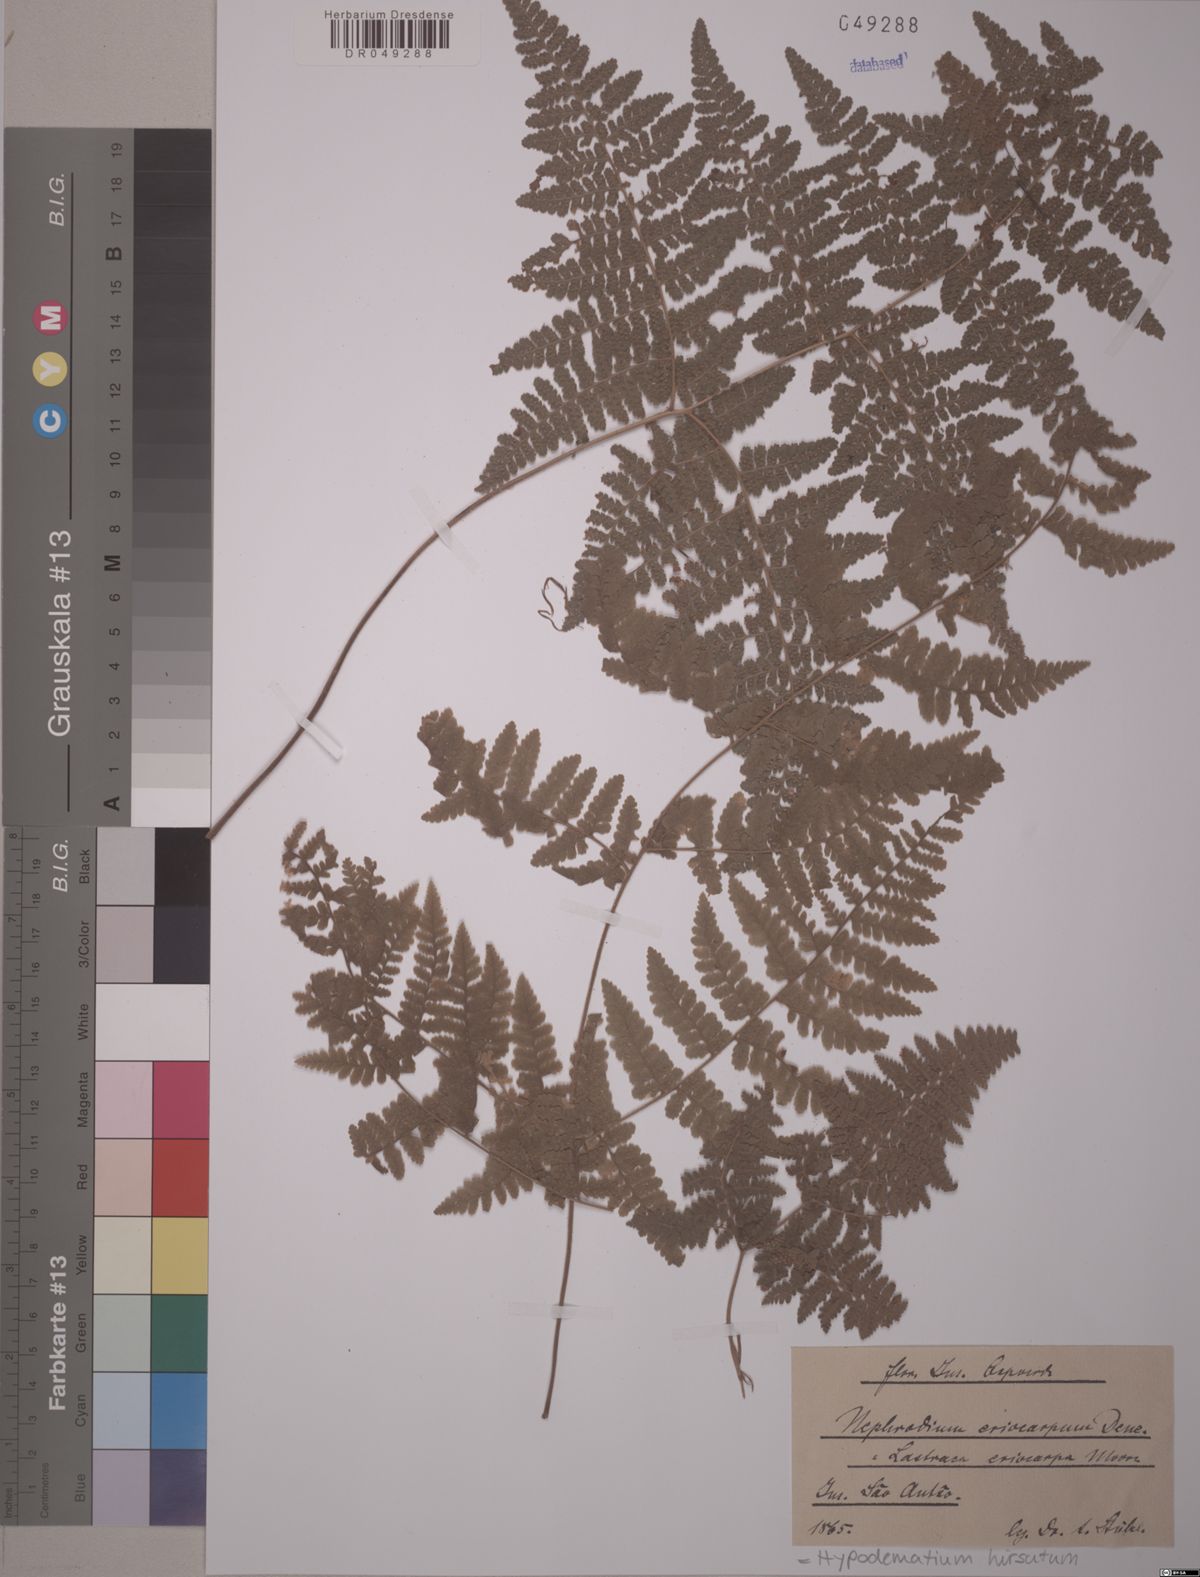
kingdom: Plantae
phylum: Tracheophyta
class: Polypodiopsida
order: Polypodiales
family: Hypodematiaceae
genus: Hypodematium
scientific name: Hypodematium hirsutum
